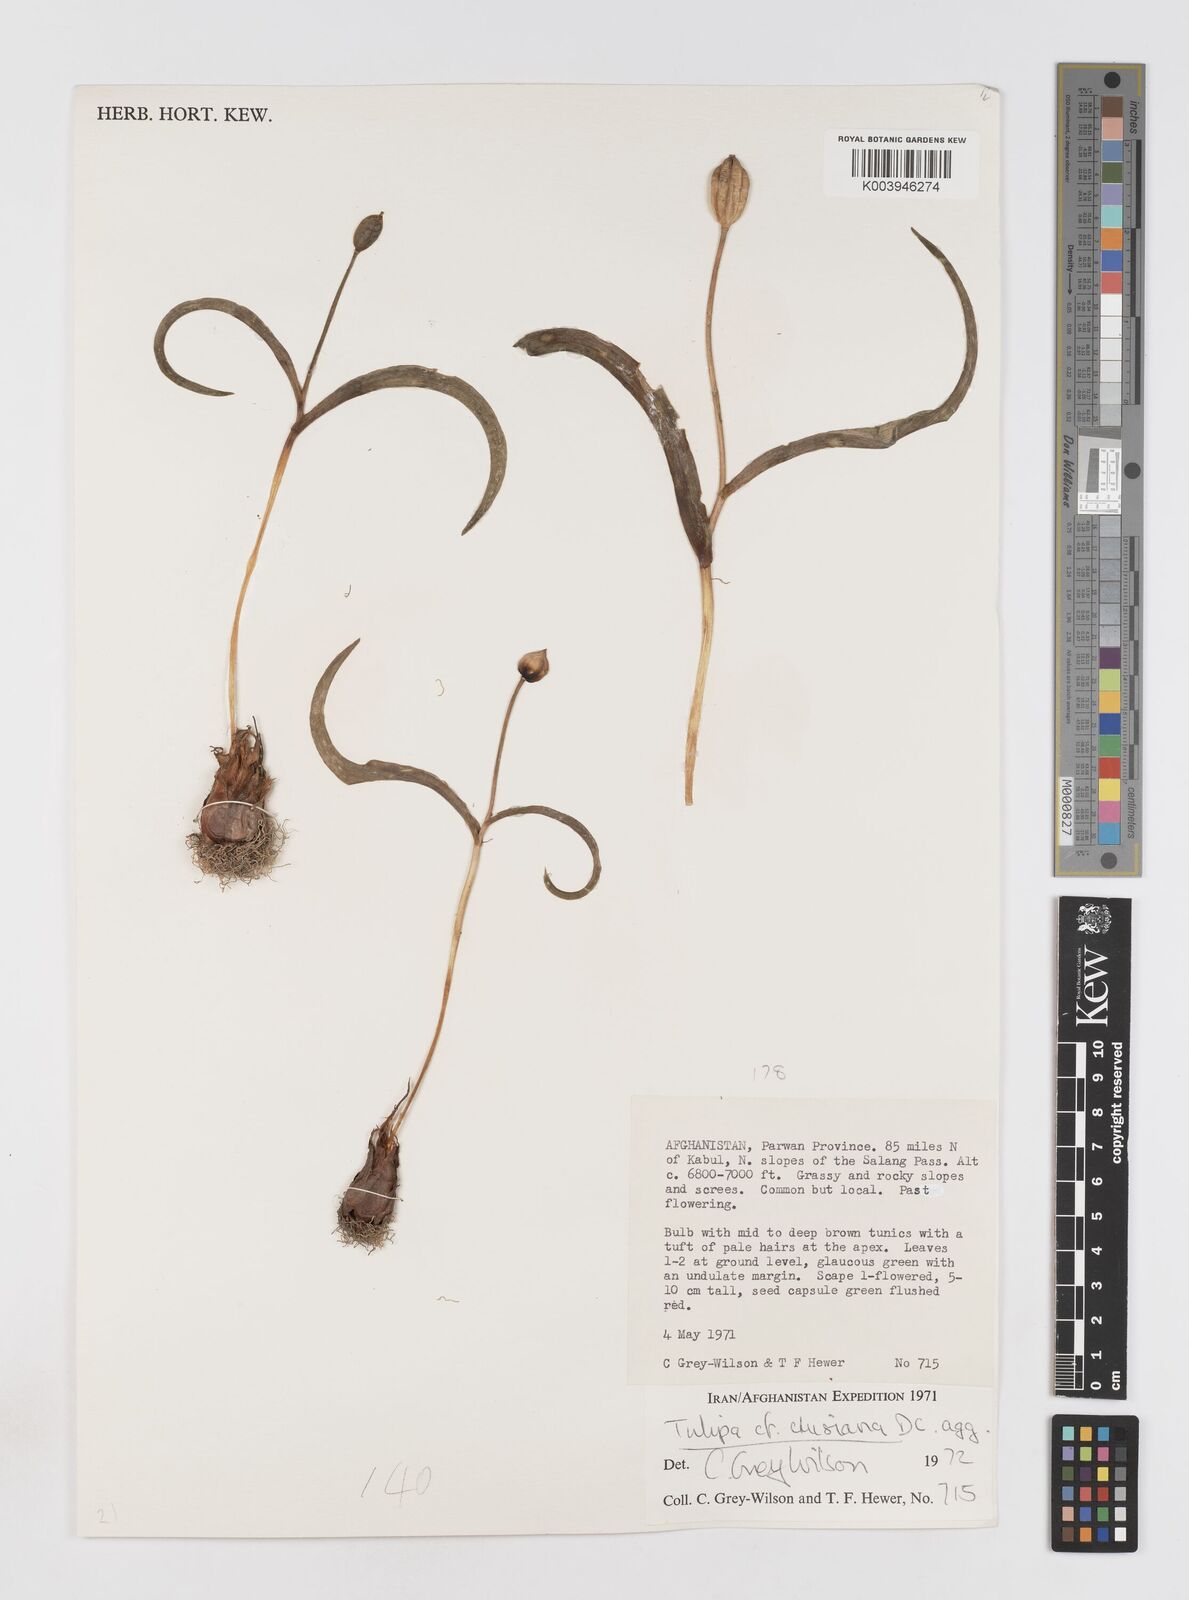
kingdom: Plantae
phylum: Tracheophyta
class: Liliopsida
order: Liliales
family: Liliaceae
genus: Tulipa
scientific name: Tulipa clusiana
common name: Lady tulip
